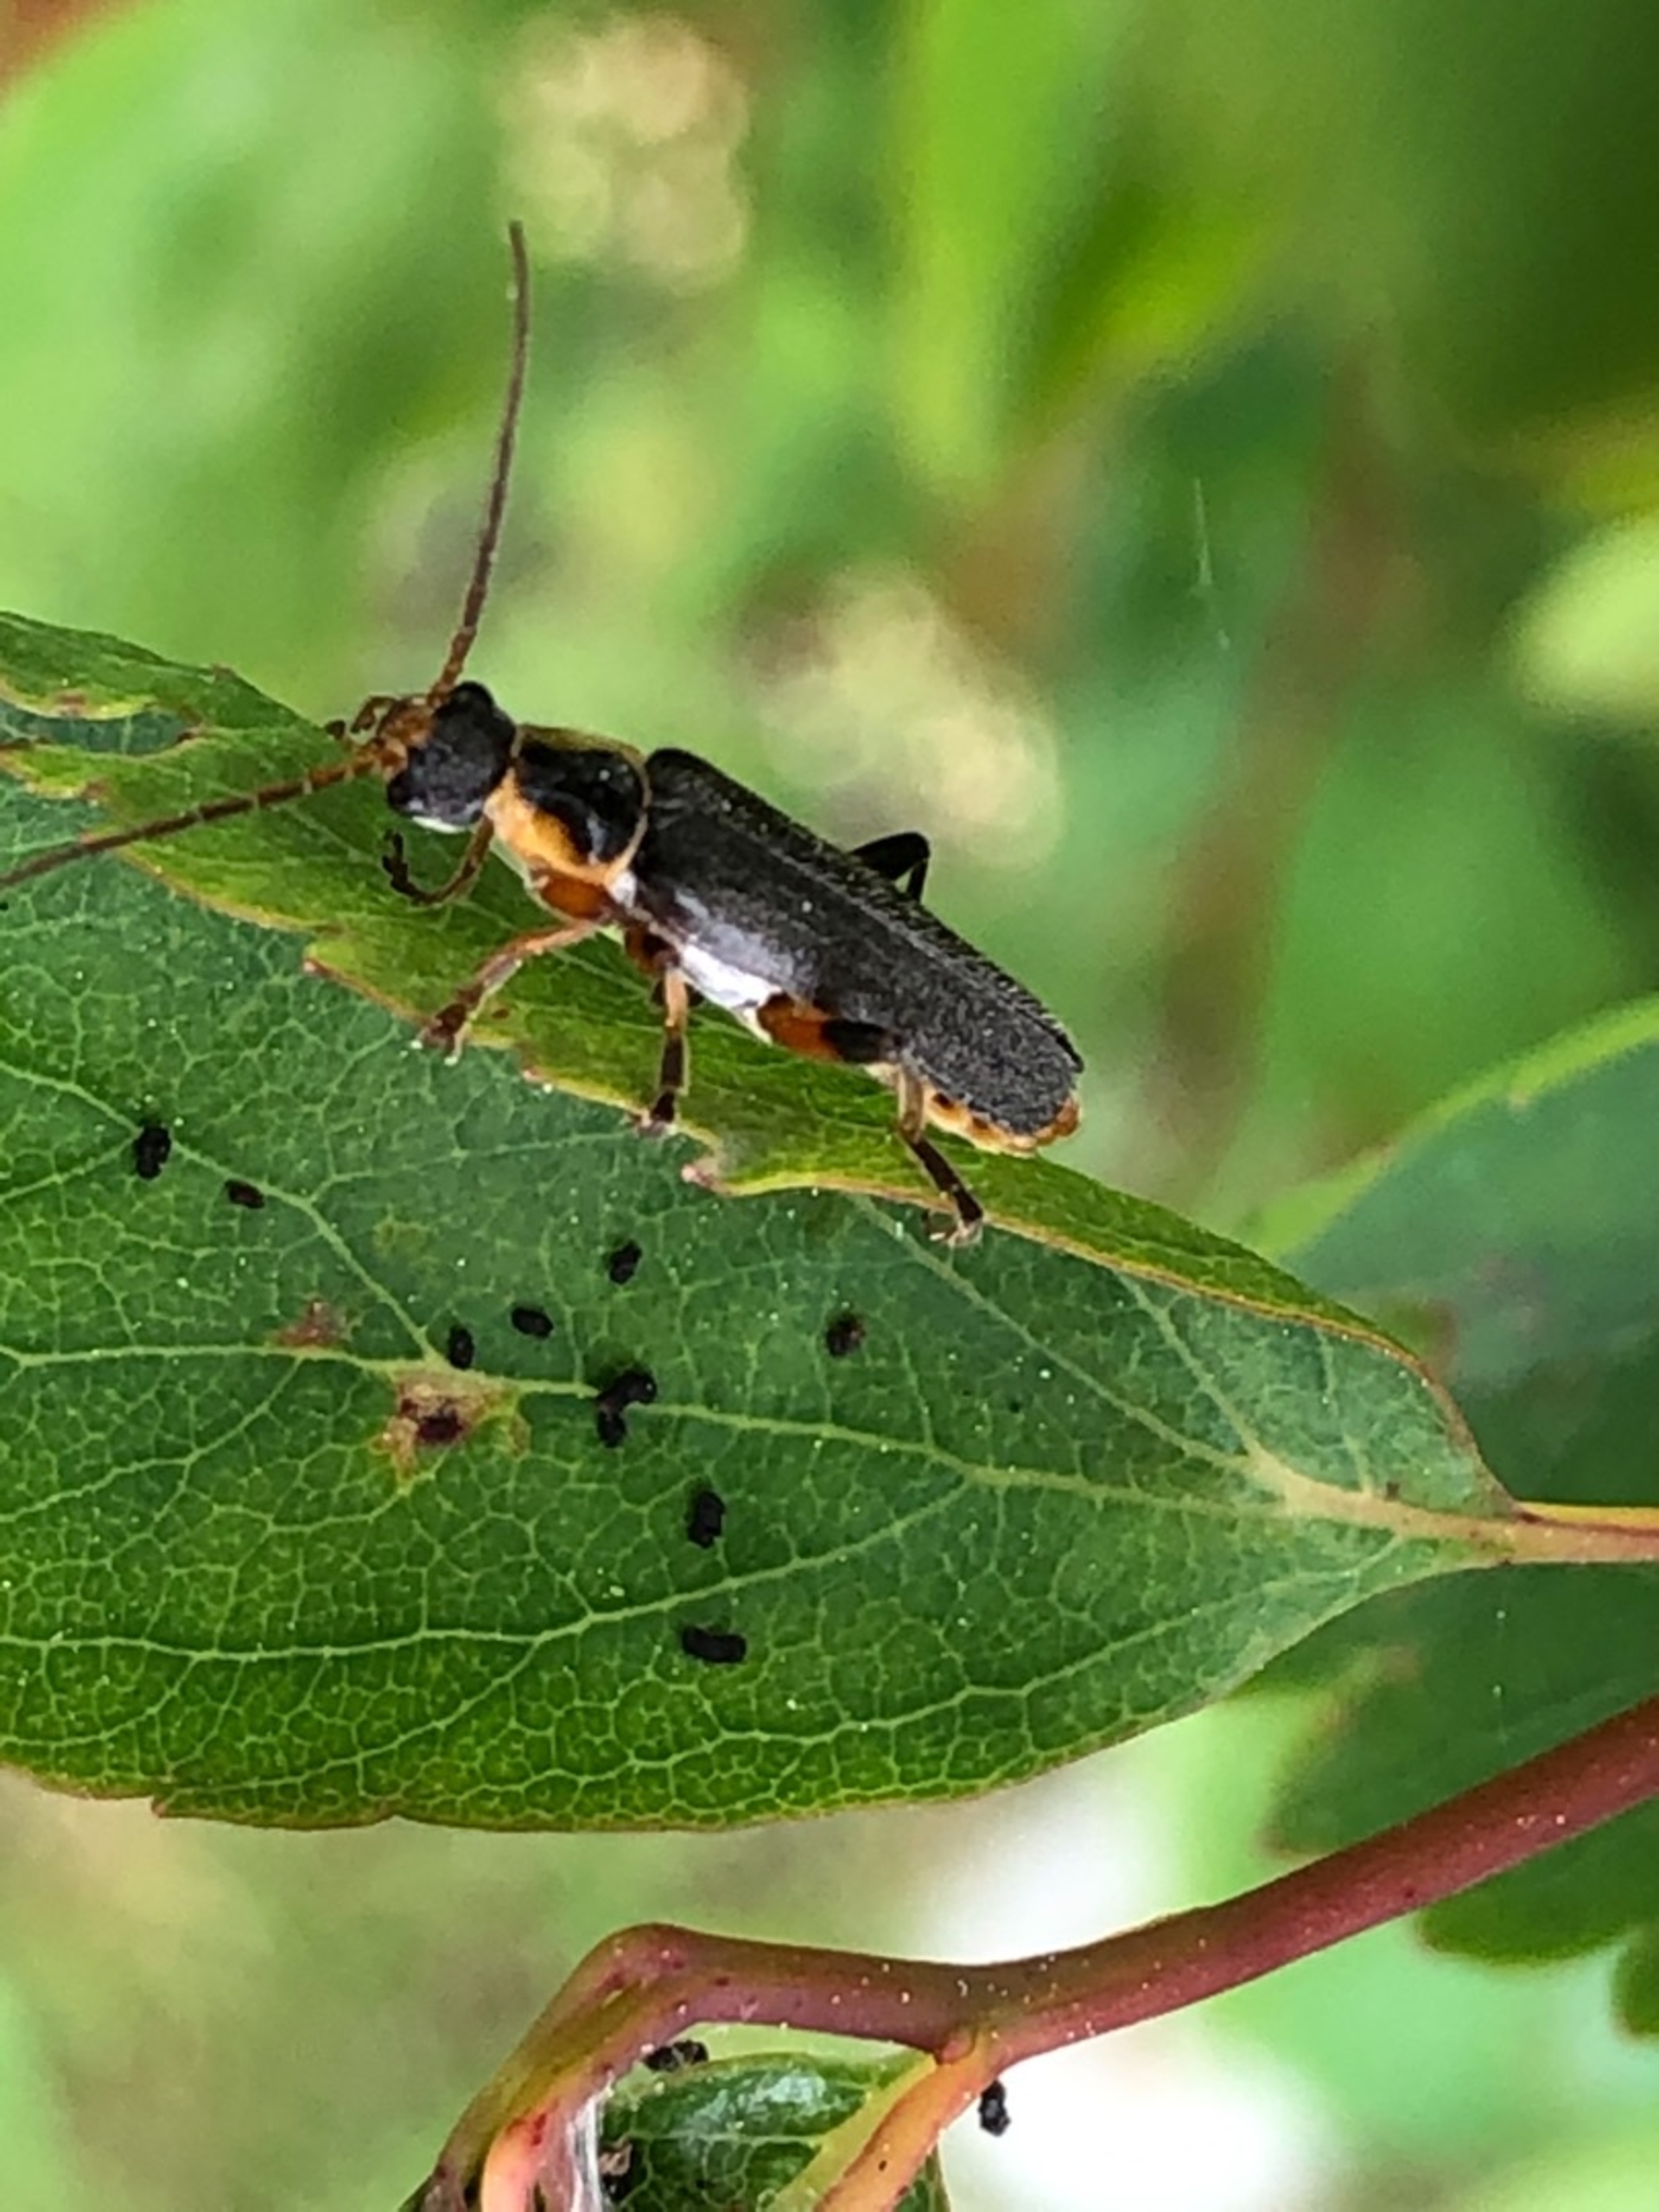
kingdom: Animalia
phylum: Arthropoda
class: Insecta
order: Coleoptera
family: Cantharidae
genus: Cantharis
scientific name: Cantharis nigricans
